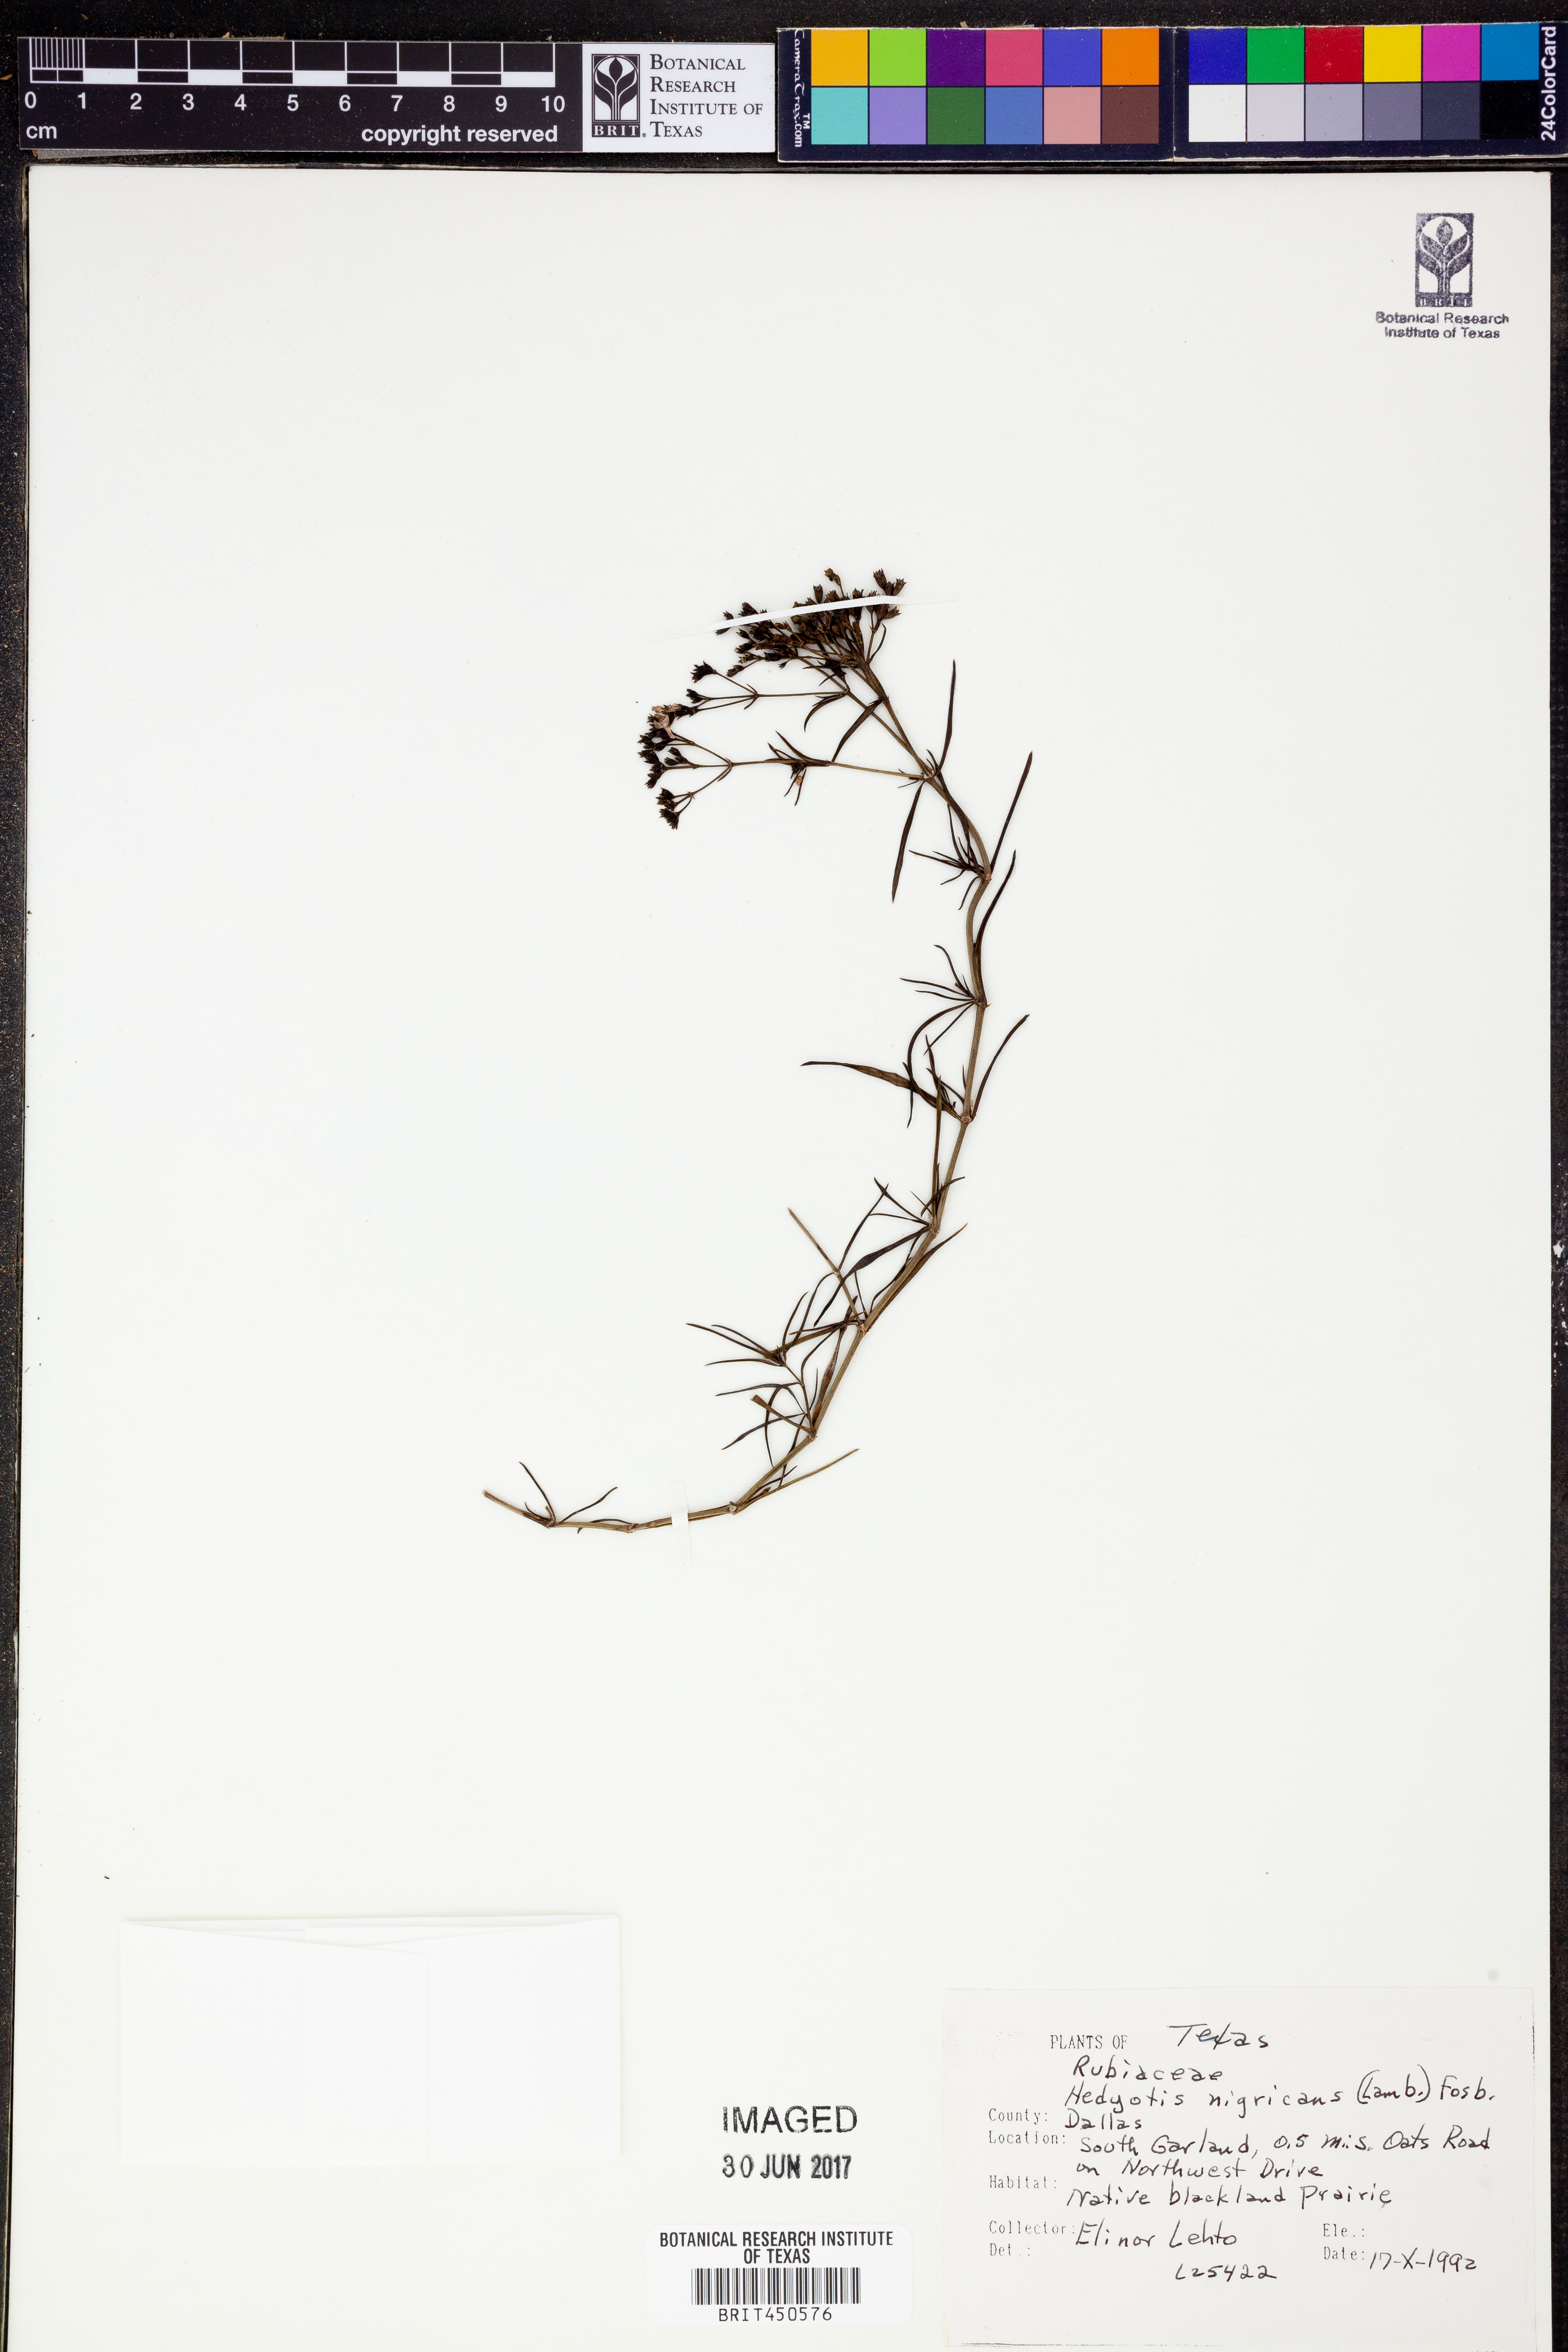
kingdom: Plantae
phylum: Tracheophyta
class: Magnoliopsida
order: Gentianales
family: Rubiaceae
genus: Stenaria
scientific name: Stenaria nigricans
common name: Diamondflowers
